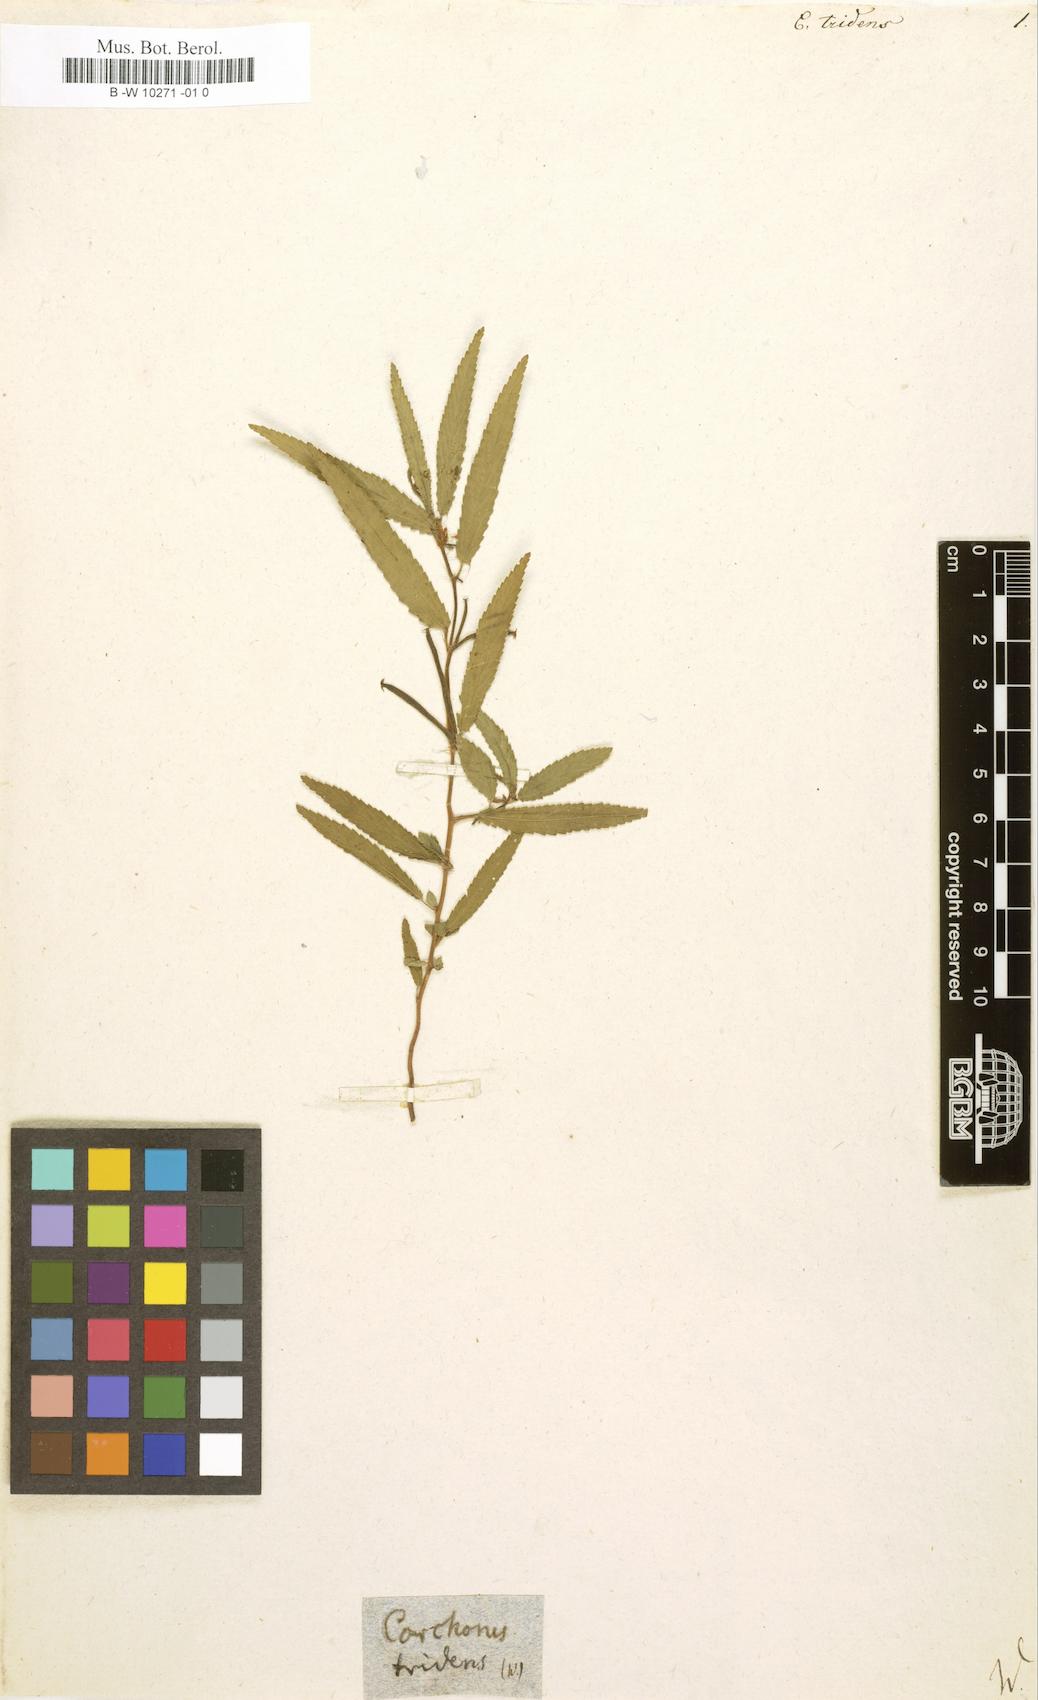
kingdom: Plantae
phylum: Tracheophyta
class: Magnoliopsida
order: Malvales
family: Malvaceae
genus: Corchorus
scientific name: Corchorus tridens
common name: Wild jute
